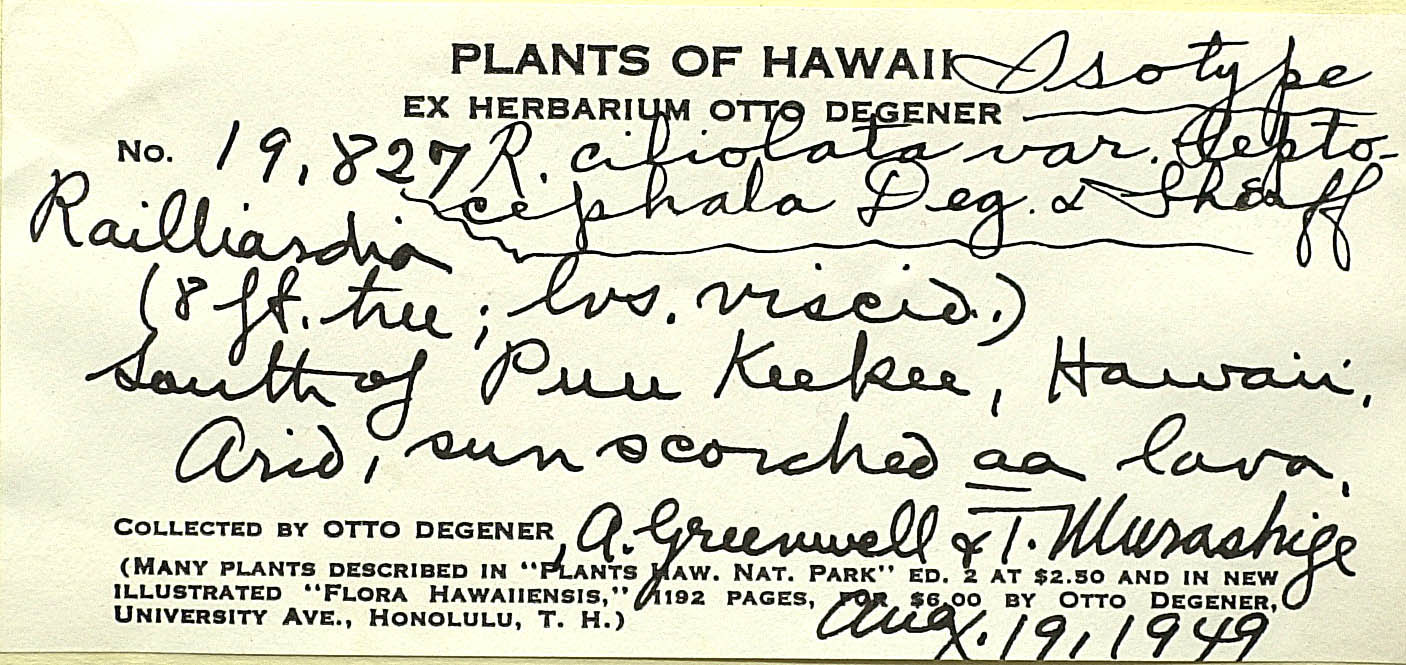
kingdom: Plantae
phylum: Tracheophyta
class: Magnoliopsida
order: Asterales
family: Asteraceae
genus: Dubautia
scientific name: Dubautia ciliolata
